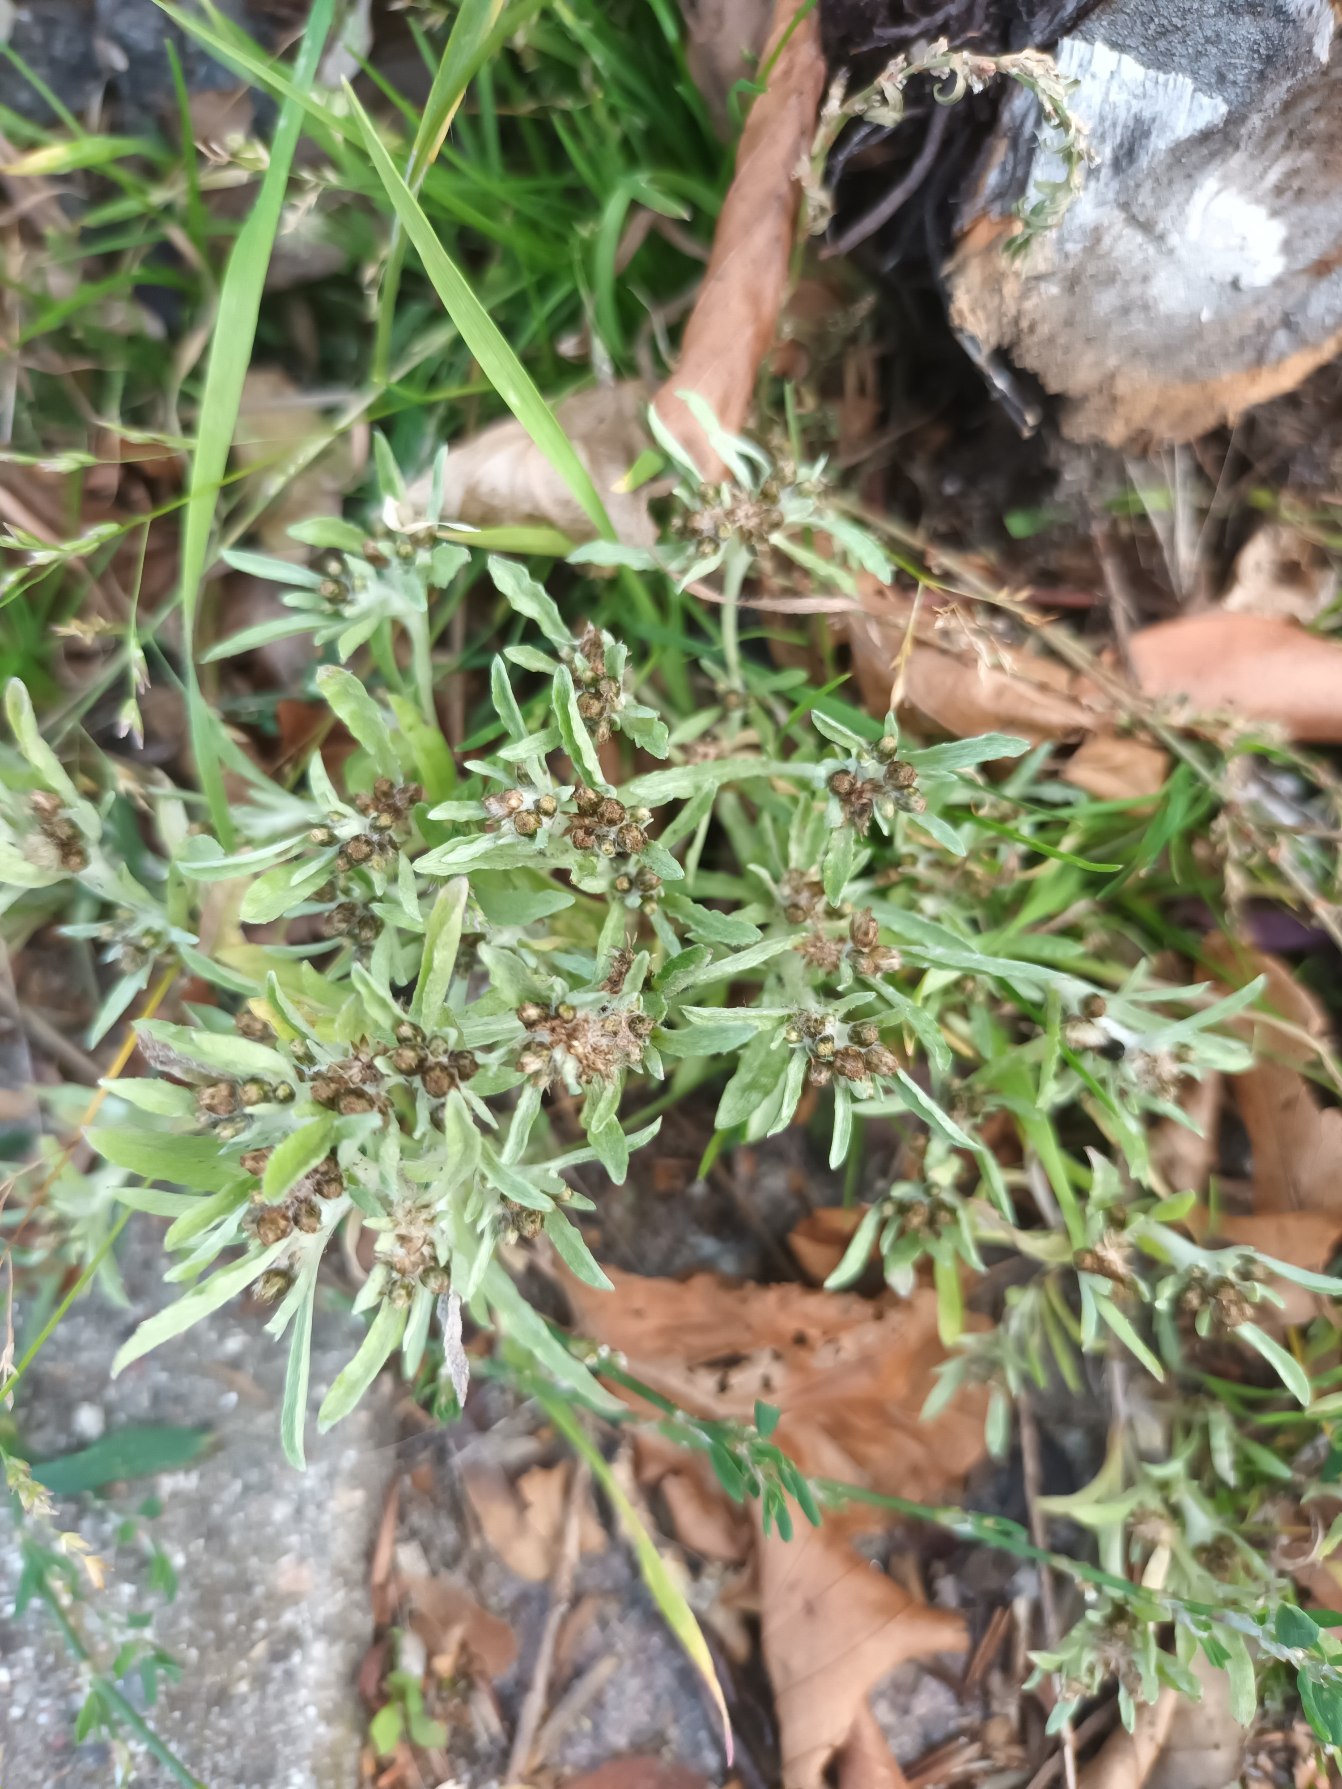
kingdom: Plantae
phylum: Tracheophyta
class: Magnoliopsida
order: Asterales
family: Asteraceae
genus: Gnaphalium
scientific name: Gnaphalium uliginosum
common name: Sump-evighedsblomst
